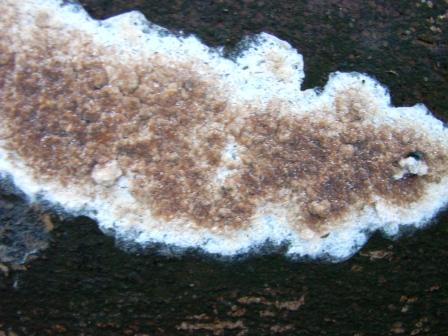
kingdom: Fungi
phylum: Basidiomycota
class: Agaricomycetes
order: Boletales
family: Coniophoraceae
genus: Coniophora
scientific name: Coniophora puteana
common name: gul tømmersvamp
